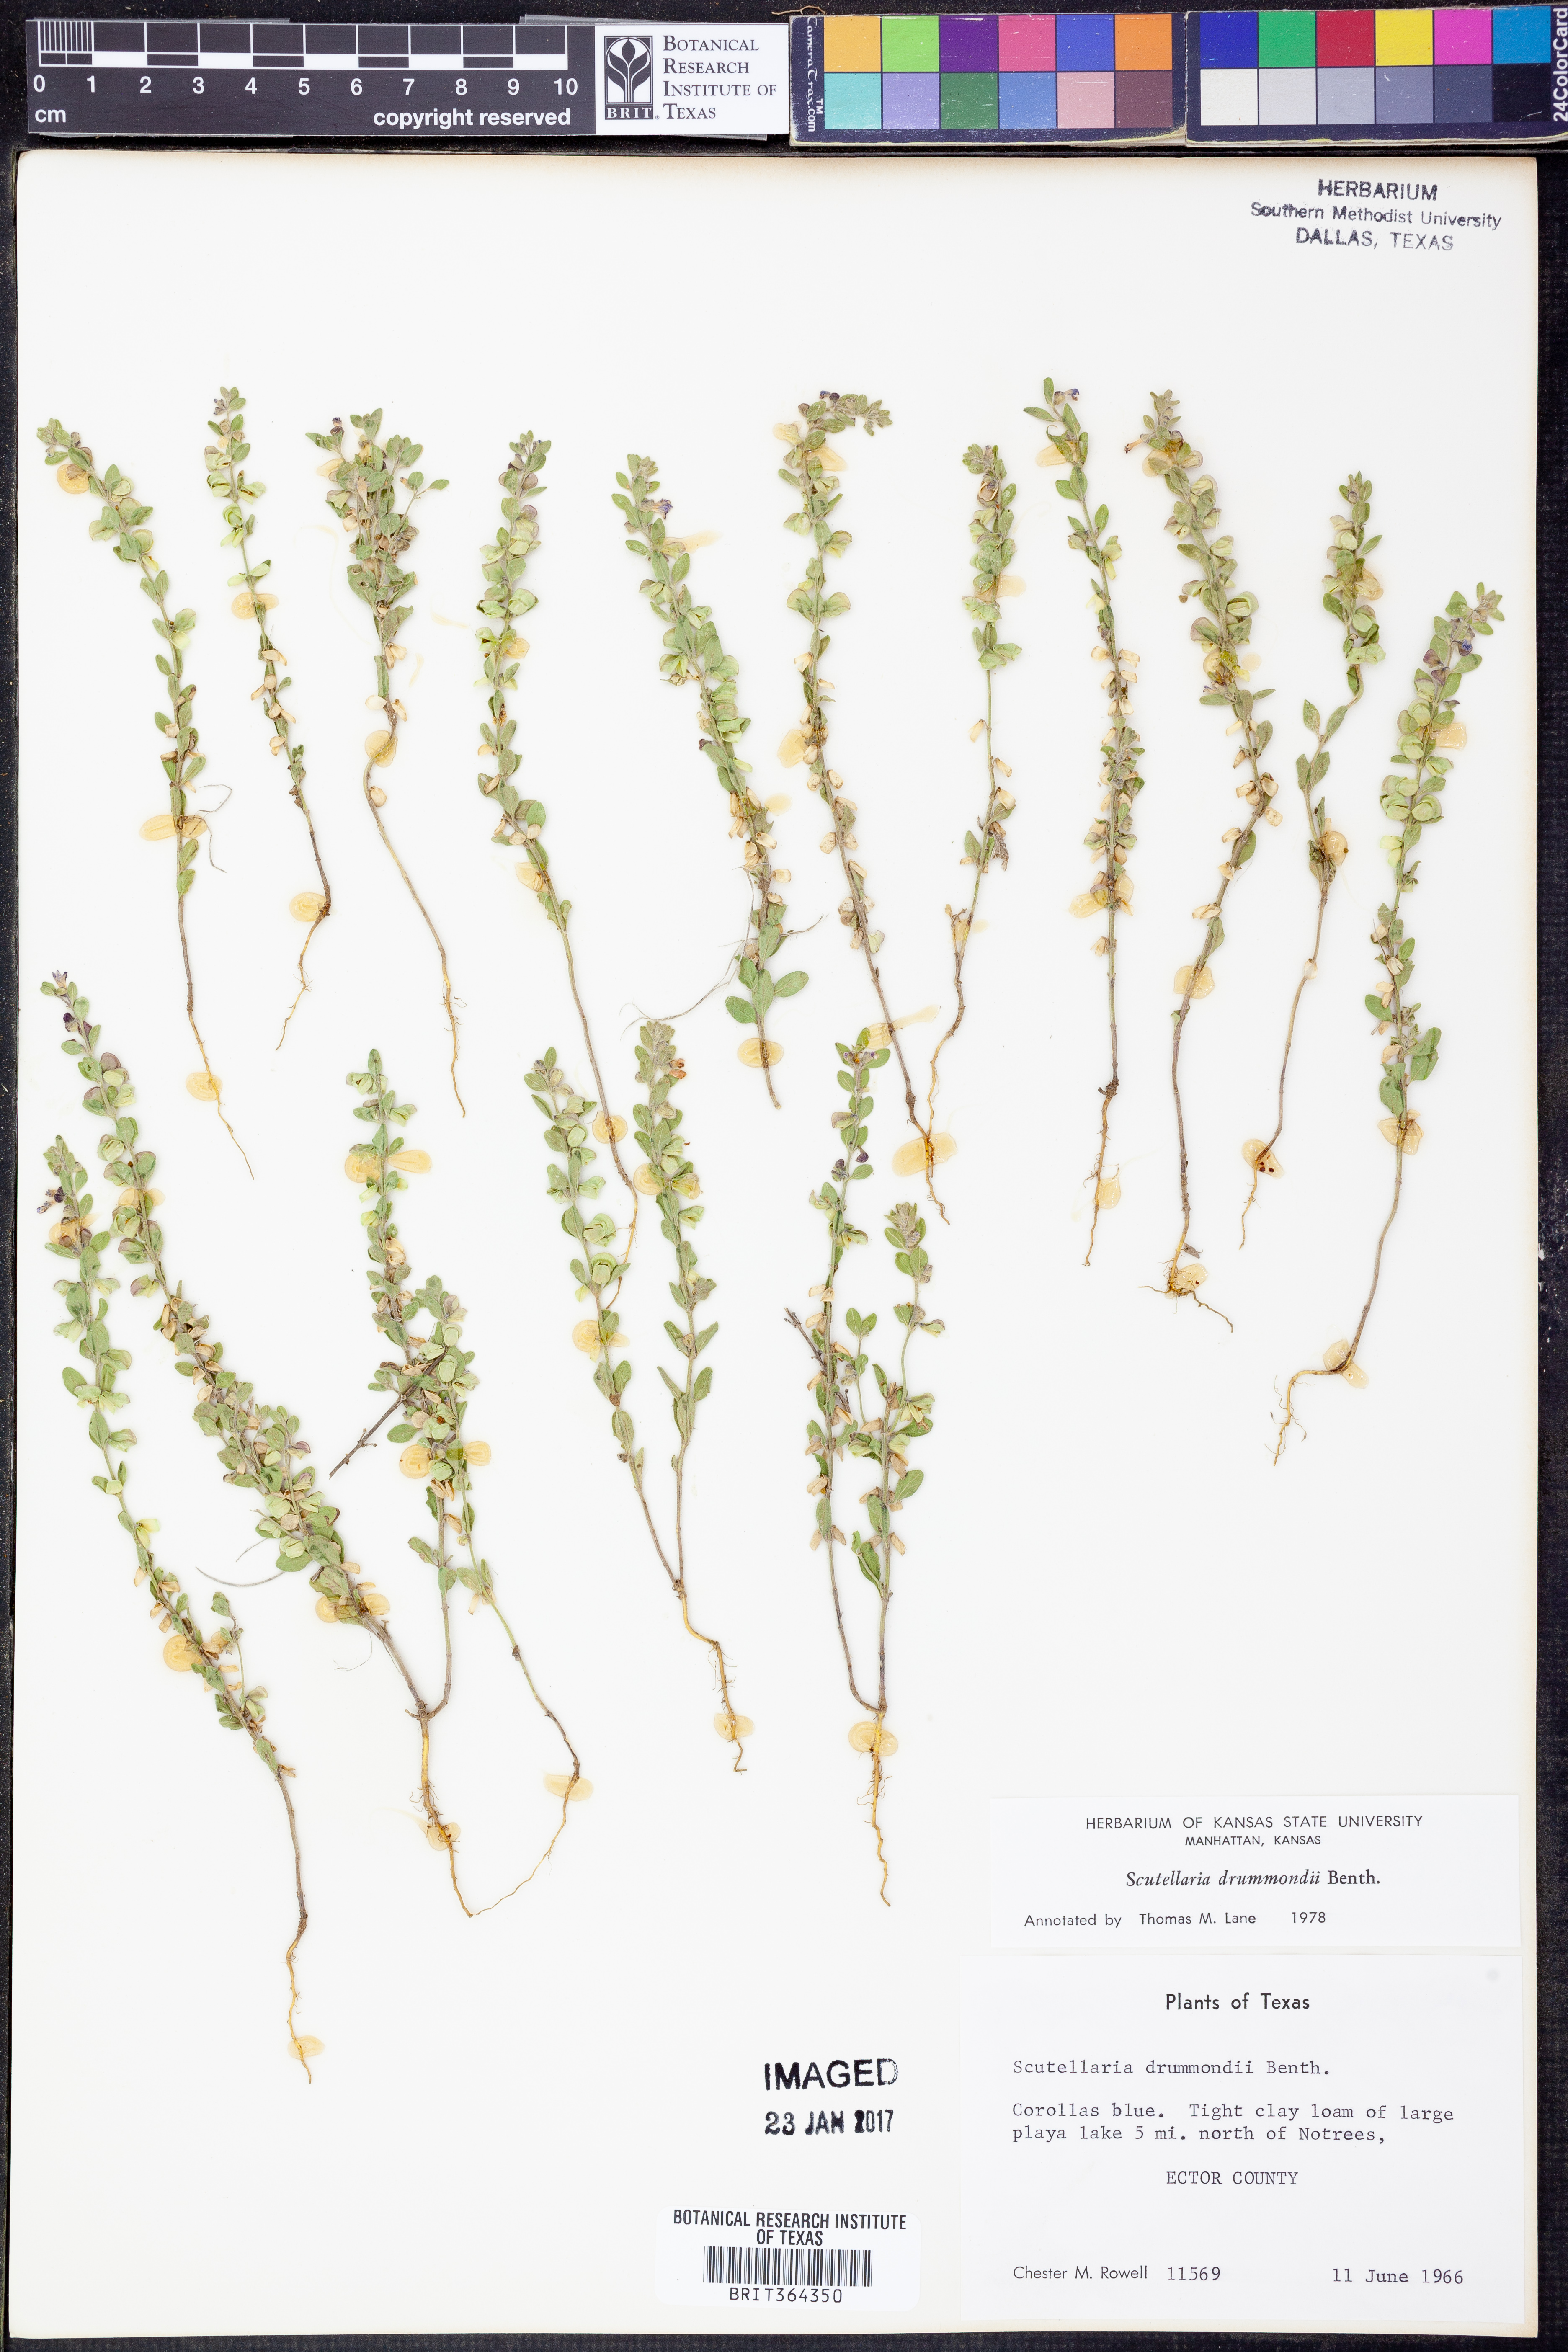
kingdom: Plantae
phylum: Tracheophyta
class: Magnoliopsida
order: Lamiales
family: Lamiaceae
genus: Scutellaria
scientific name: Scutellaria drummondii
